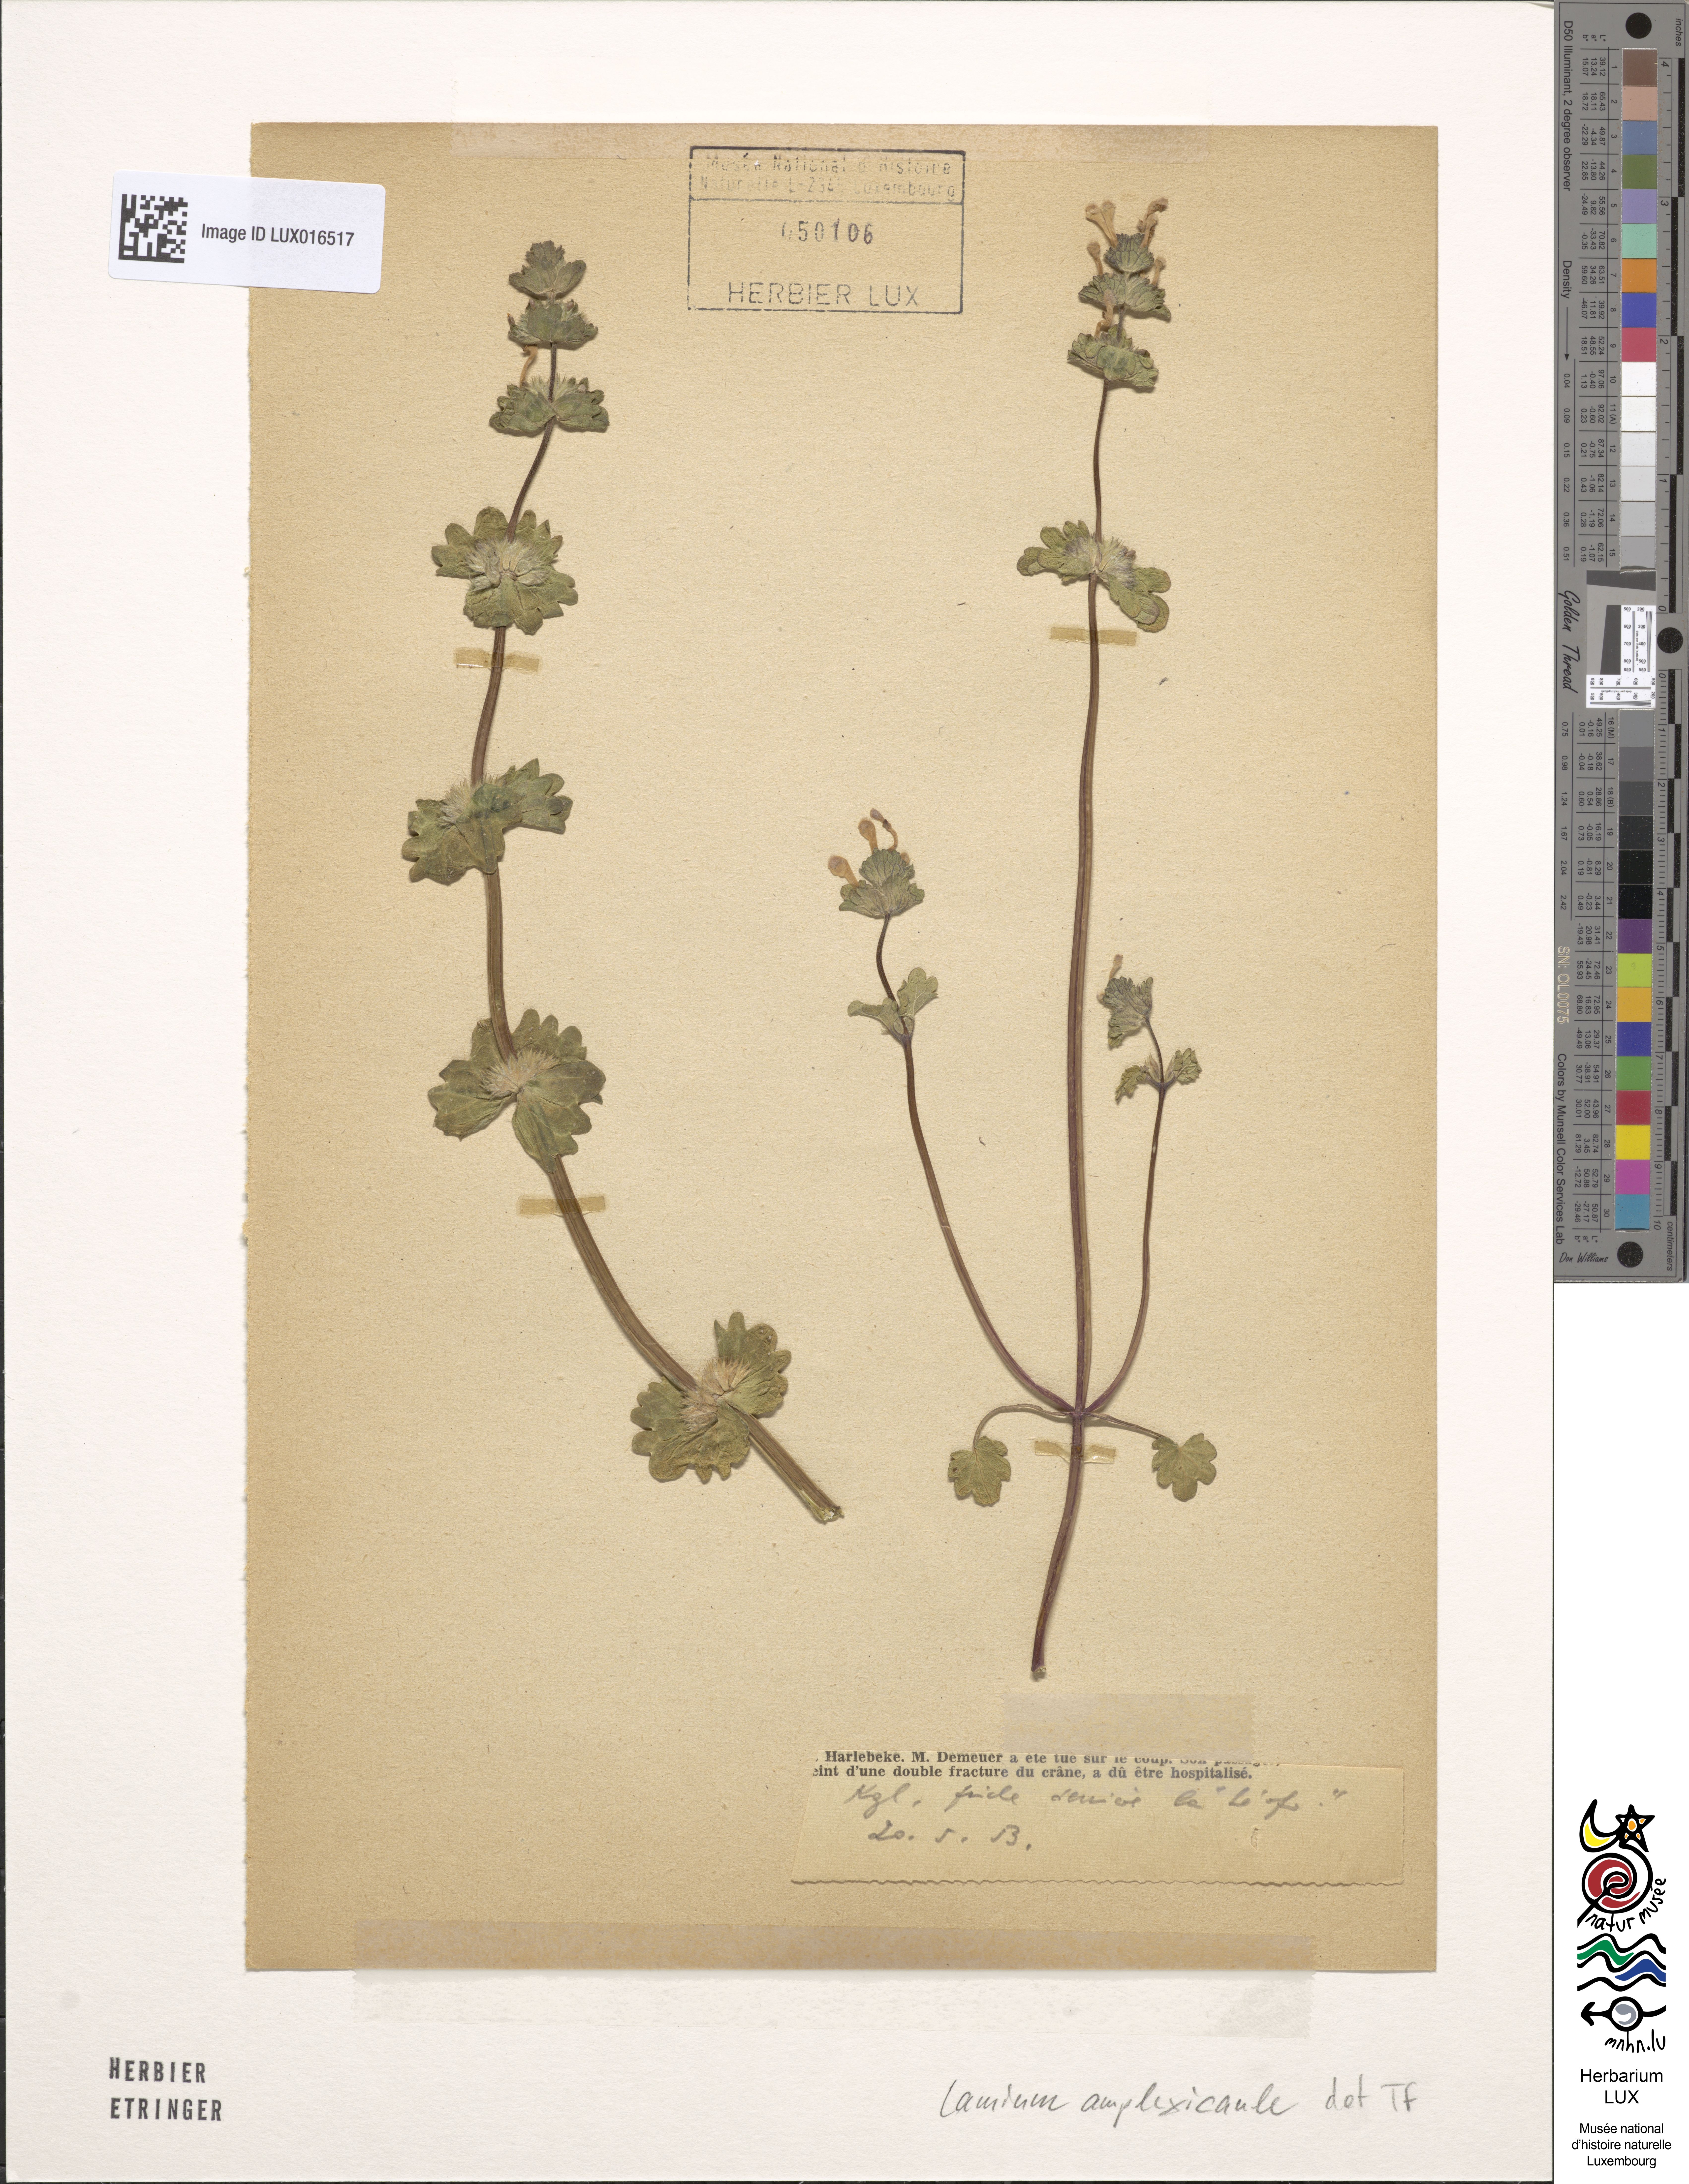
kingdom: Plantae
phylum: Tracheophyta
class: Magnoliopsida
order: Lamiales
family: Lamiaceae
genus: Lamium
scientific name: Lamium amplexicaule
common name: Henbit dead-nettle
